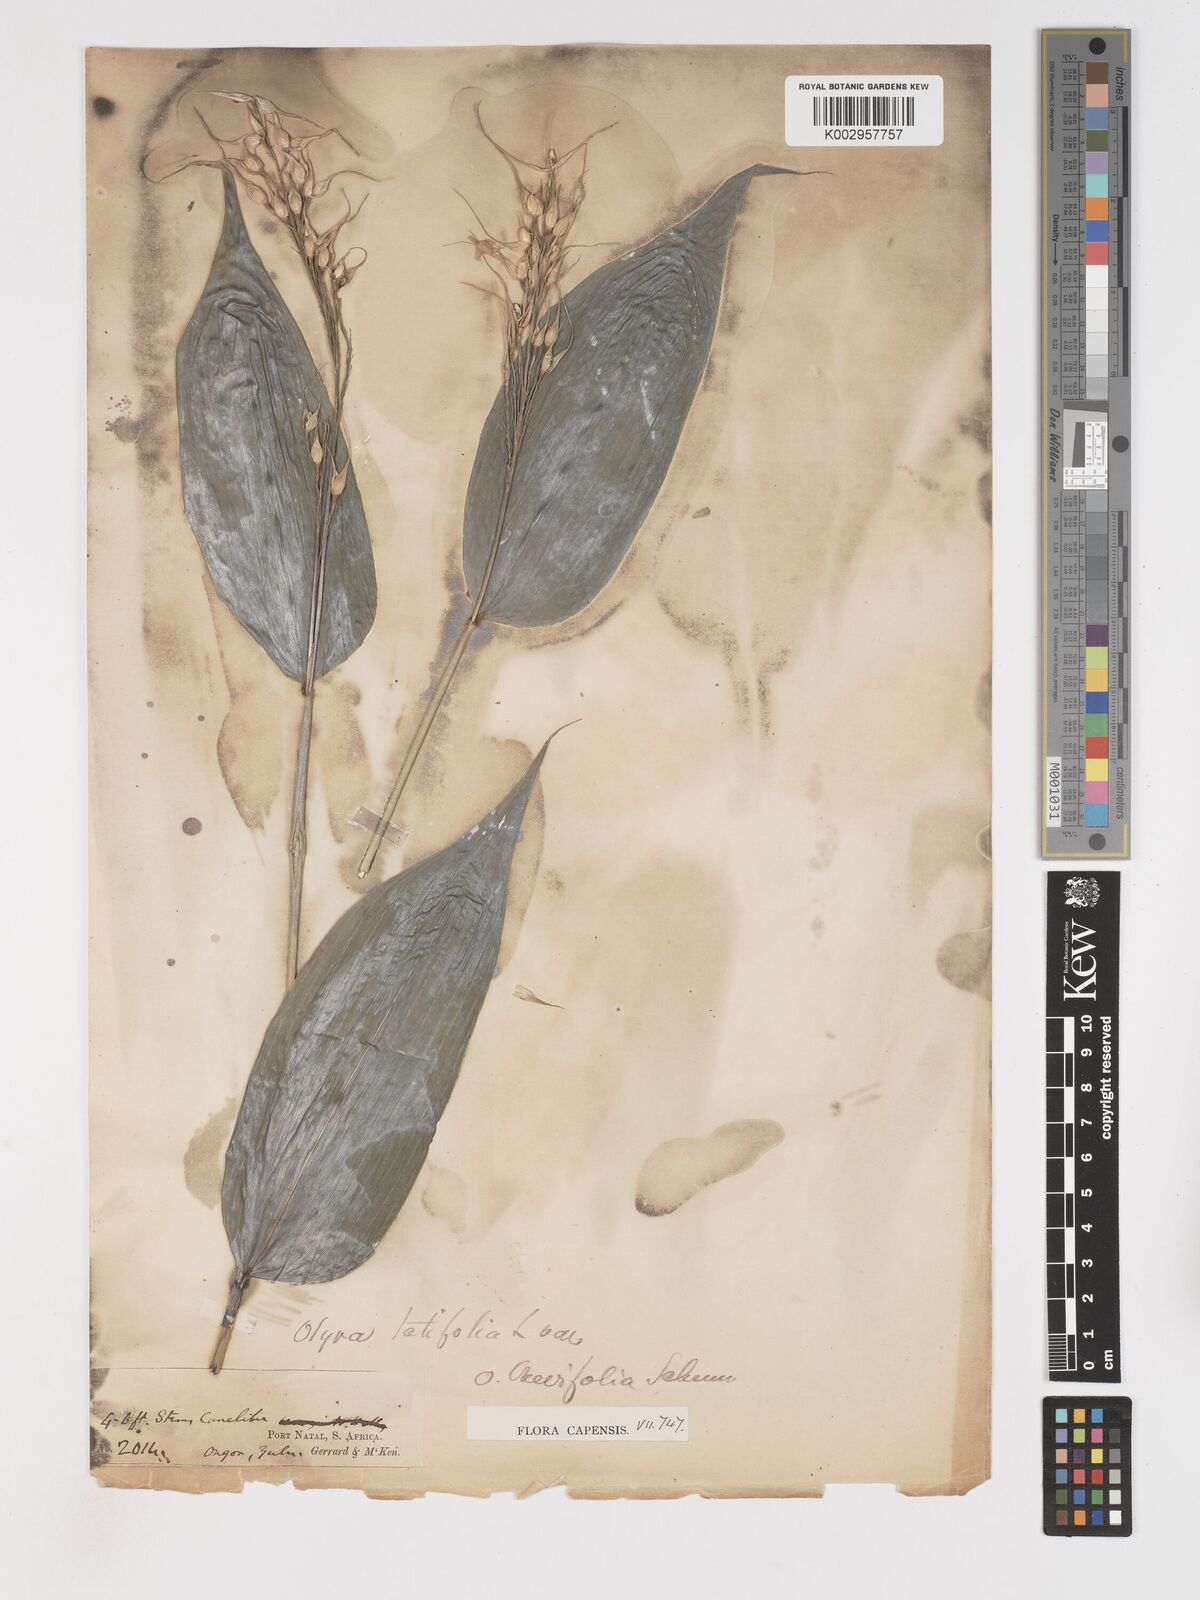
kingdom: Plantae
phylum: Tracheophyta
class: Liliopsida
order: Poales
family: Poaceae
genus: Olyra
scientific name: Olyra latifolia
